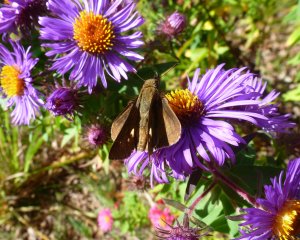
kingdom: Animalia
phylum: Arthropoda
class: Insecta
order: Lepidoptera
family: Hesperiidae
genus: Panoquina
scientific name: Panoquina ocola
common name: Ocola Skipper
